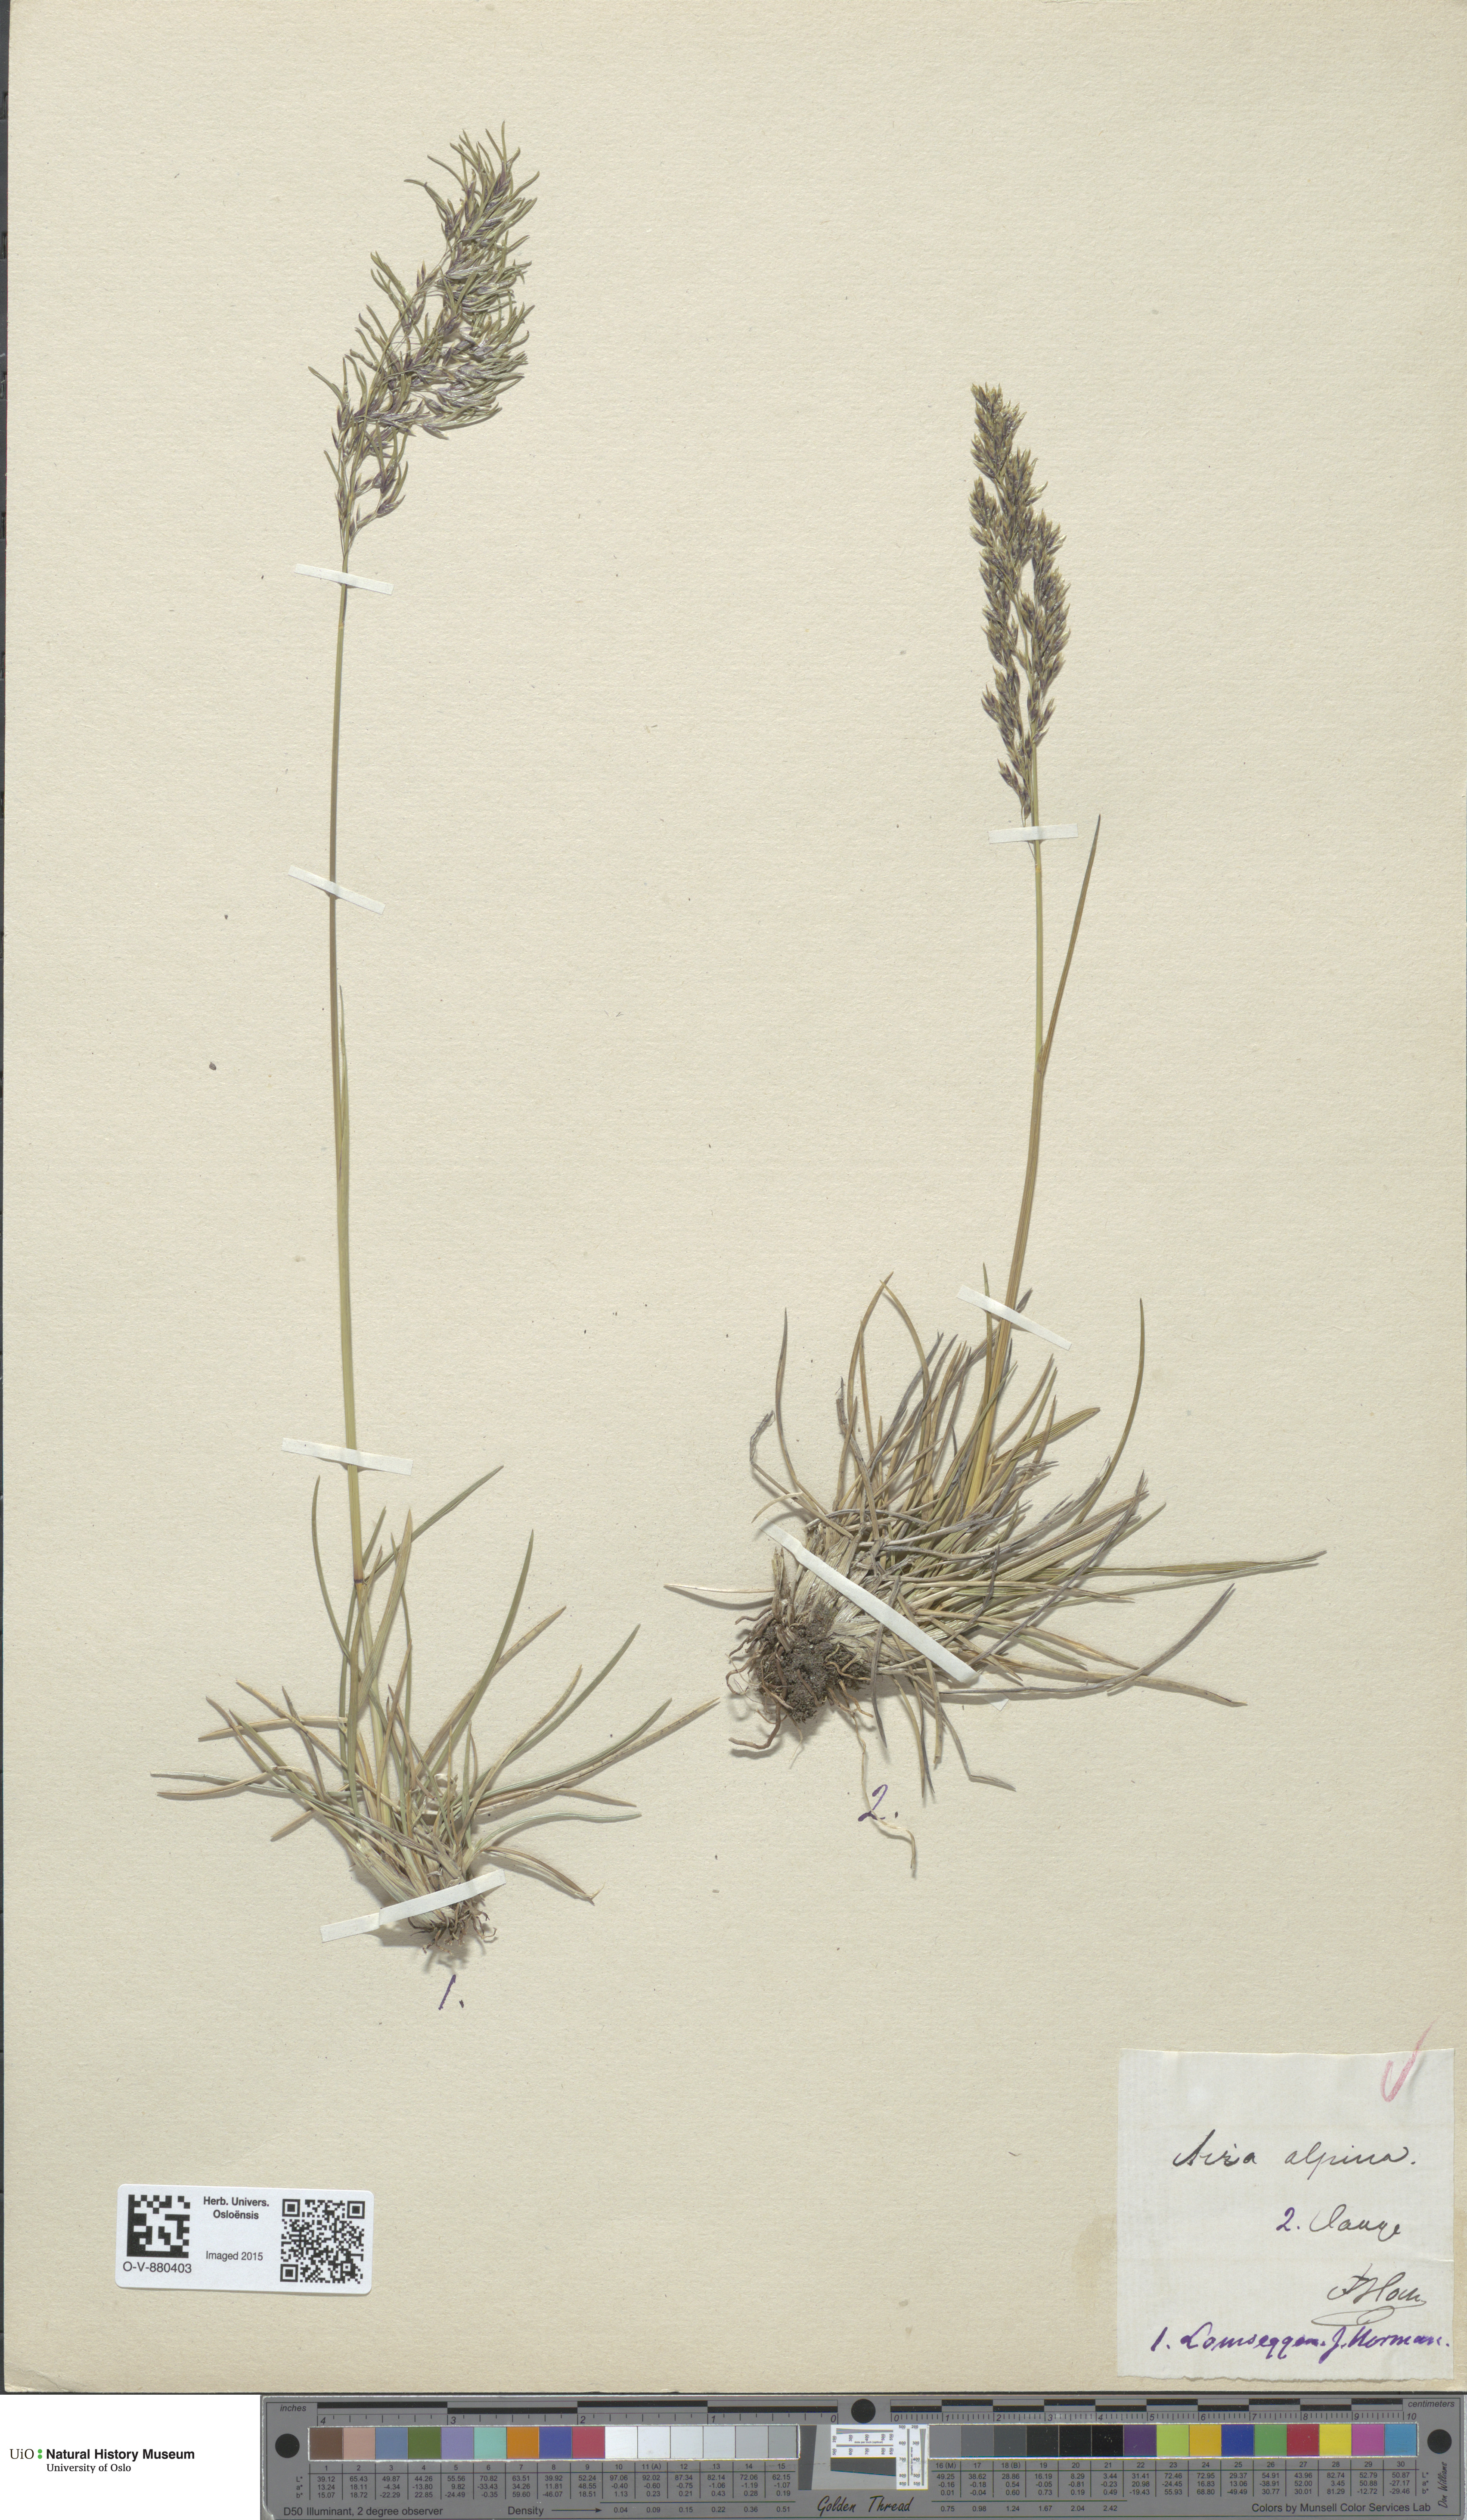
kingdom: Plantae
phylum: Tracheophyta
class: Liliopsida
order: Poales
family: Poaceae
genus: Deschampsia
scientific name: Deschampsia cespitosa
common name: Tufted hair-grass
